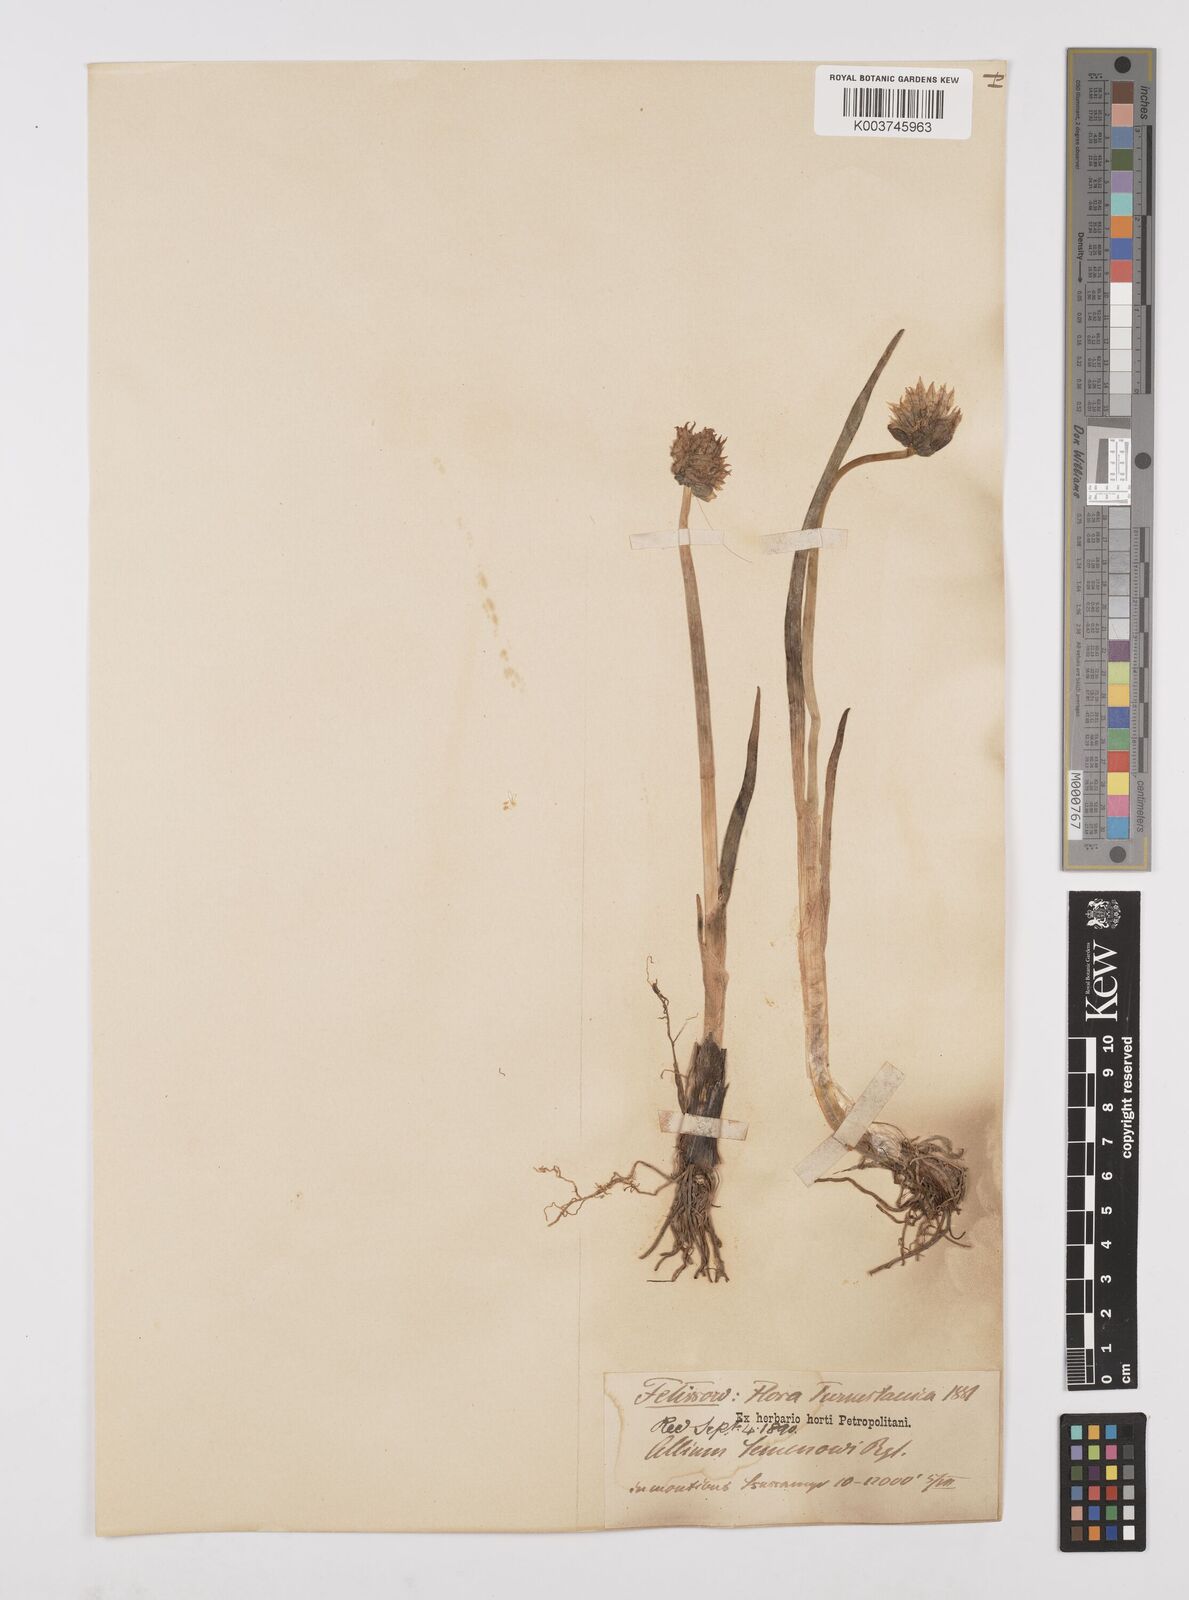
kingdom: Plantae
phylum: Tracheophyta
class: Liliopsida
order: Asparagales
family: Amaryllidaceae
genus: Allium
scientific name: Allium semenovii
